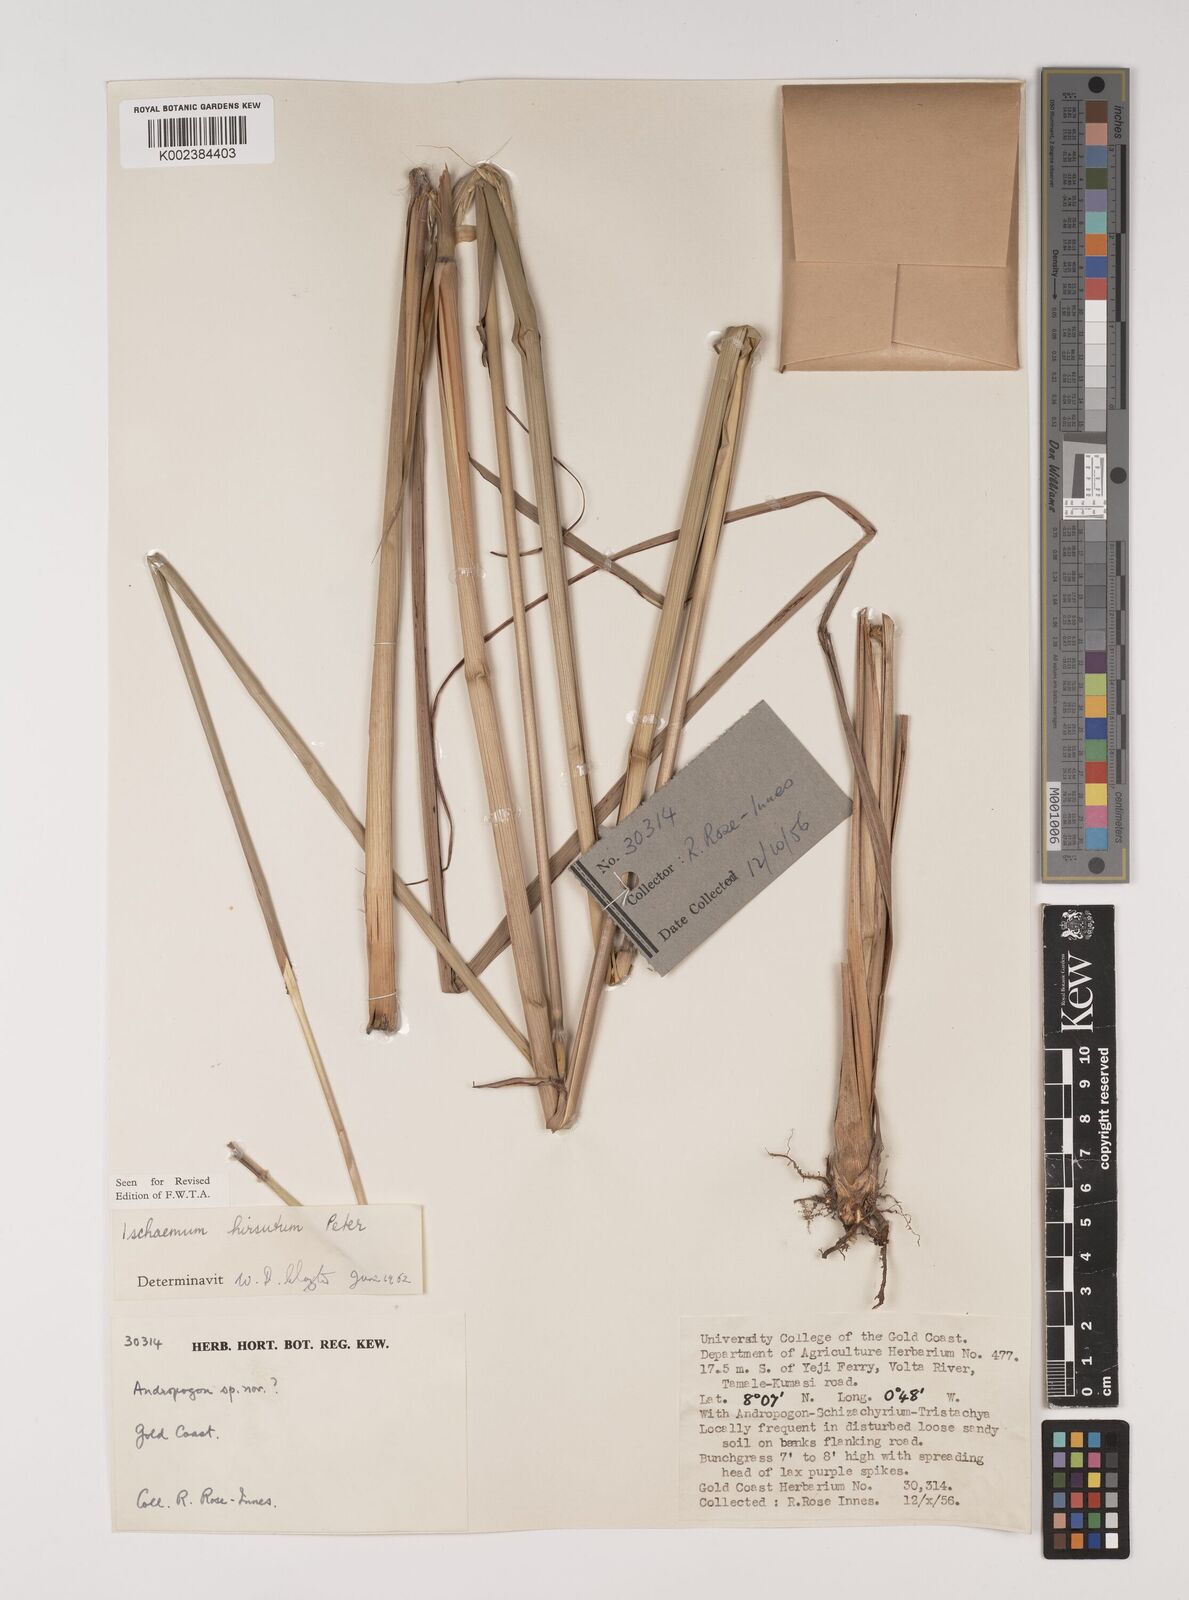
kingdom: Plantae
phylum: Tracheophyta
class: Liliopsida
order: Poales
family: Poaceae
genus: Rottboellia
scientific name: Rottboellia villosa
